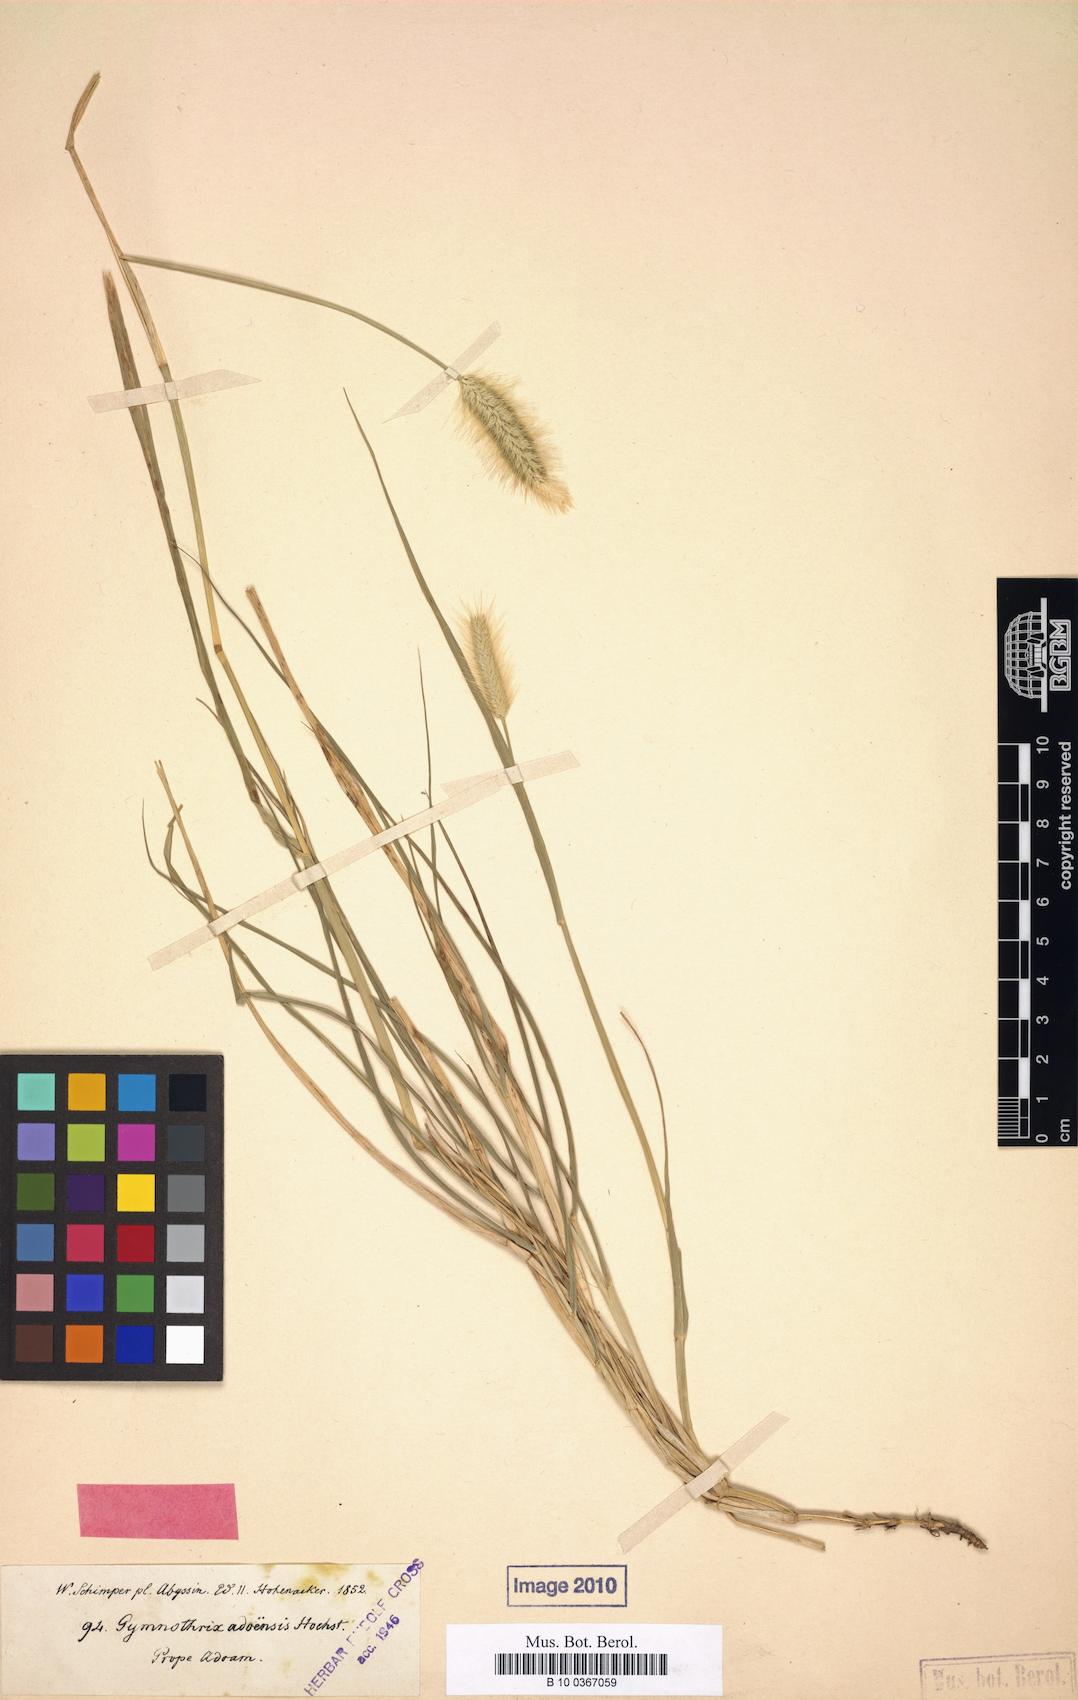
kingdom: Plantae
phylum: Tracheophyta
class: Liliopsida
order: Poales
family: Poaceae
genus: Cenchrus
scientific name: Cenchrus Gymnotrix adoensis
